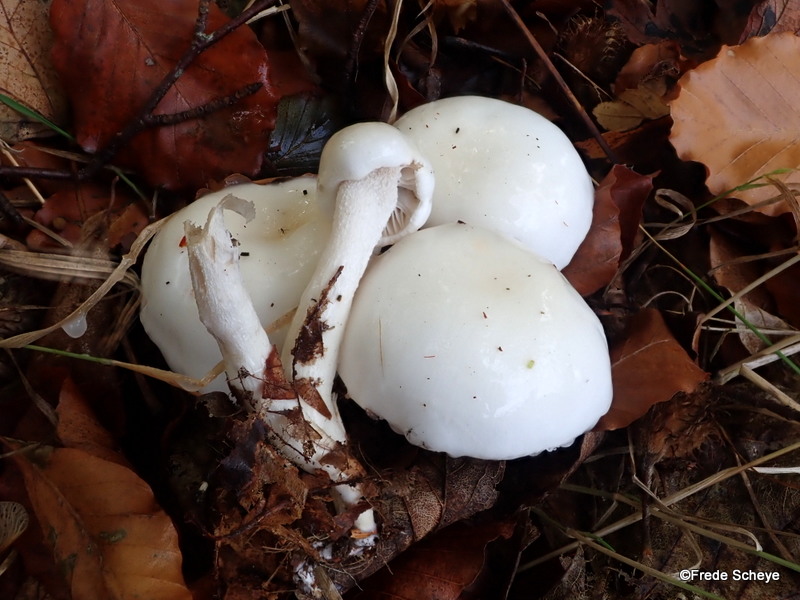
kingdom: Fungi
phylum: Basidiomycota
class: Agaricomycetes
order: Agaricales
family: Hygrophoraceae
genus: Hygrophorus
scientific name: Hygrophorus discoxanthus
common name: ildelugtende sneglehat
